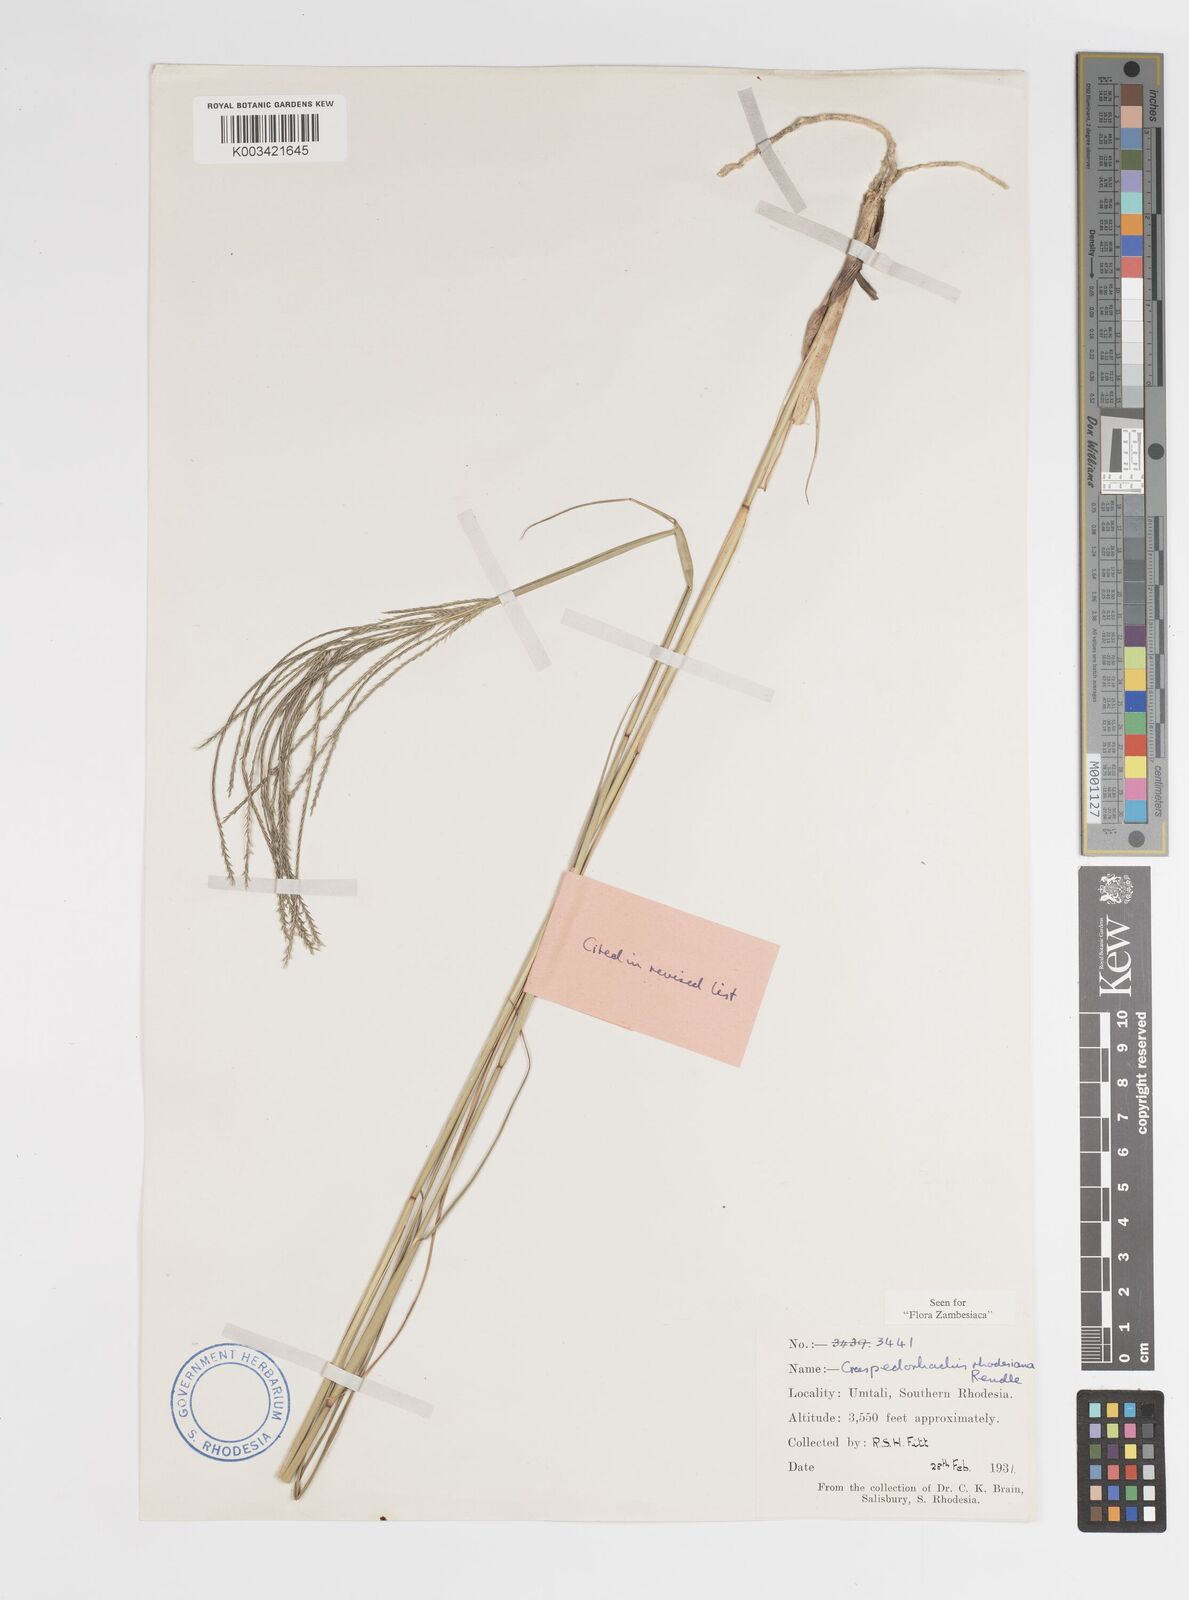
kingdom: Plantae
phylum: Tracheophyta
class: Liliopsida
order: Poales
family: Poaceae
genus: Craspedorhachis
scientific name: Craspedorhachis rhodesiana
